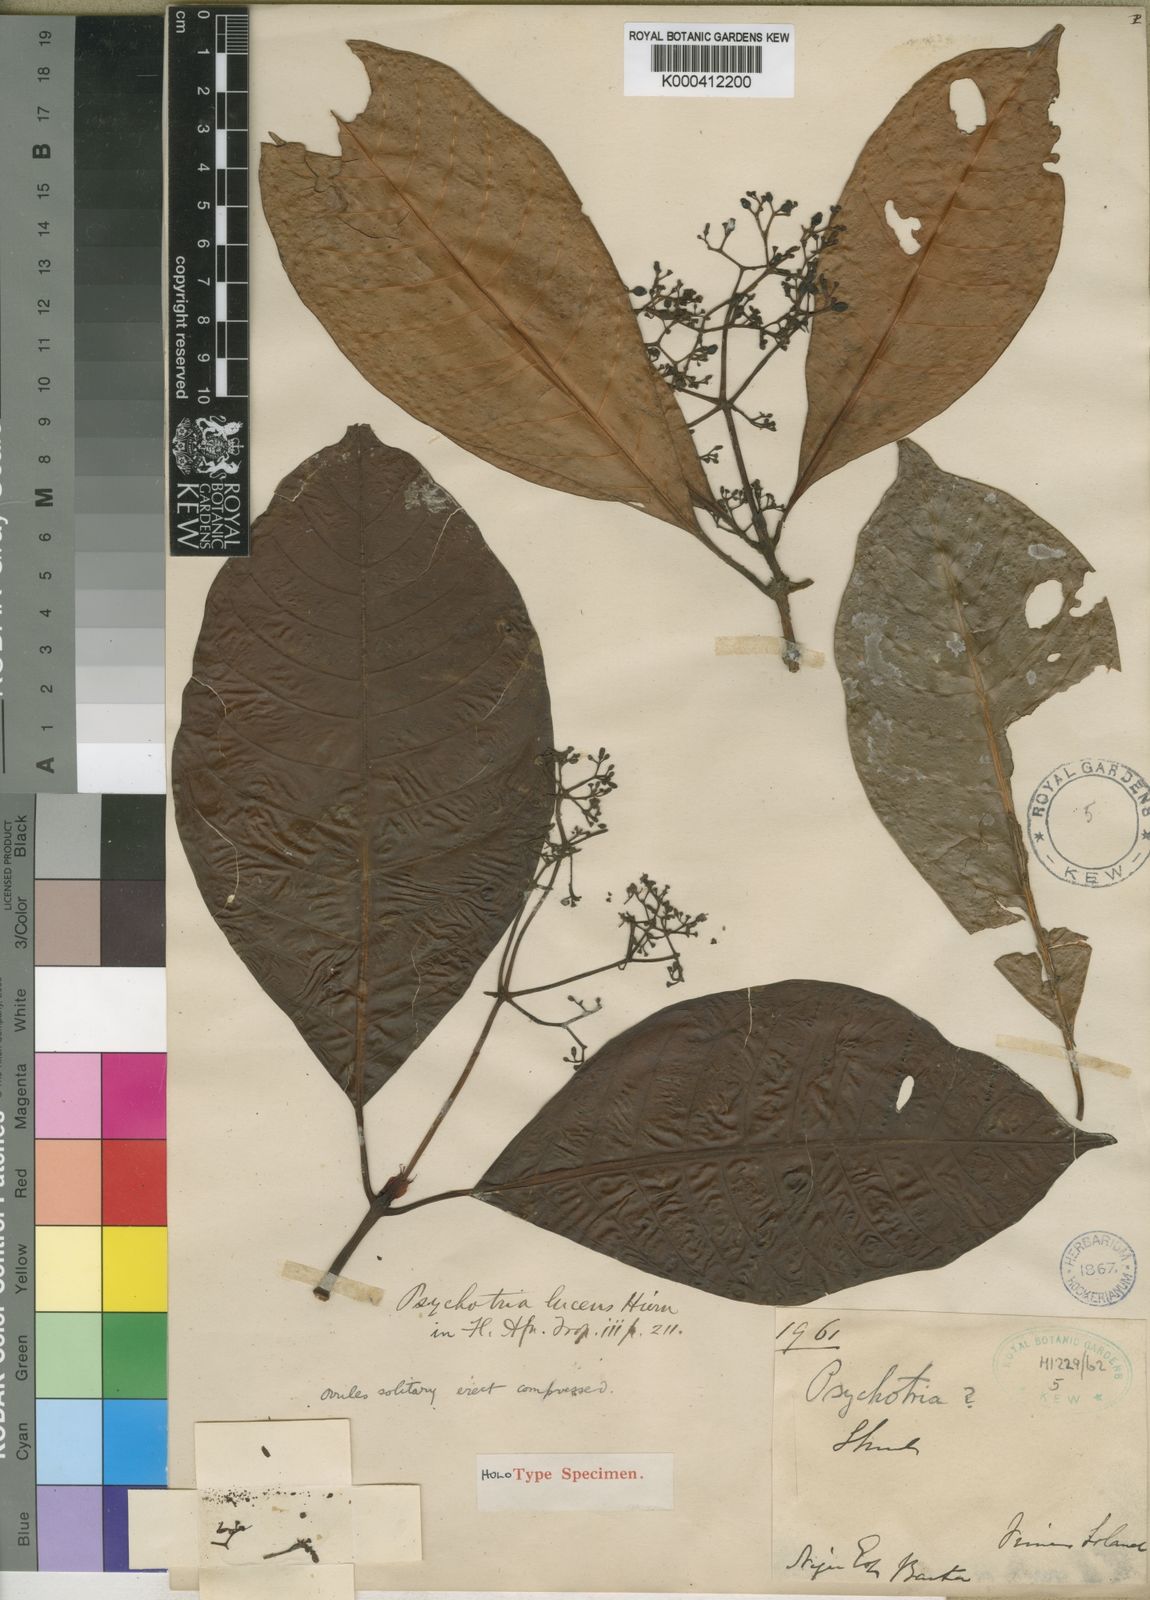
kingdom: Plantae
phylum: Tracheophyta
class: Magnoliopsida
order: Gentianales
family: Rubiaceae
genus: Psychotria
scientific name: Psychotria lucens
